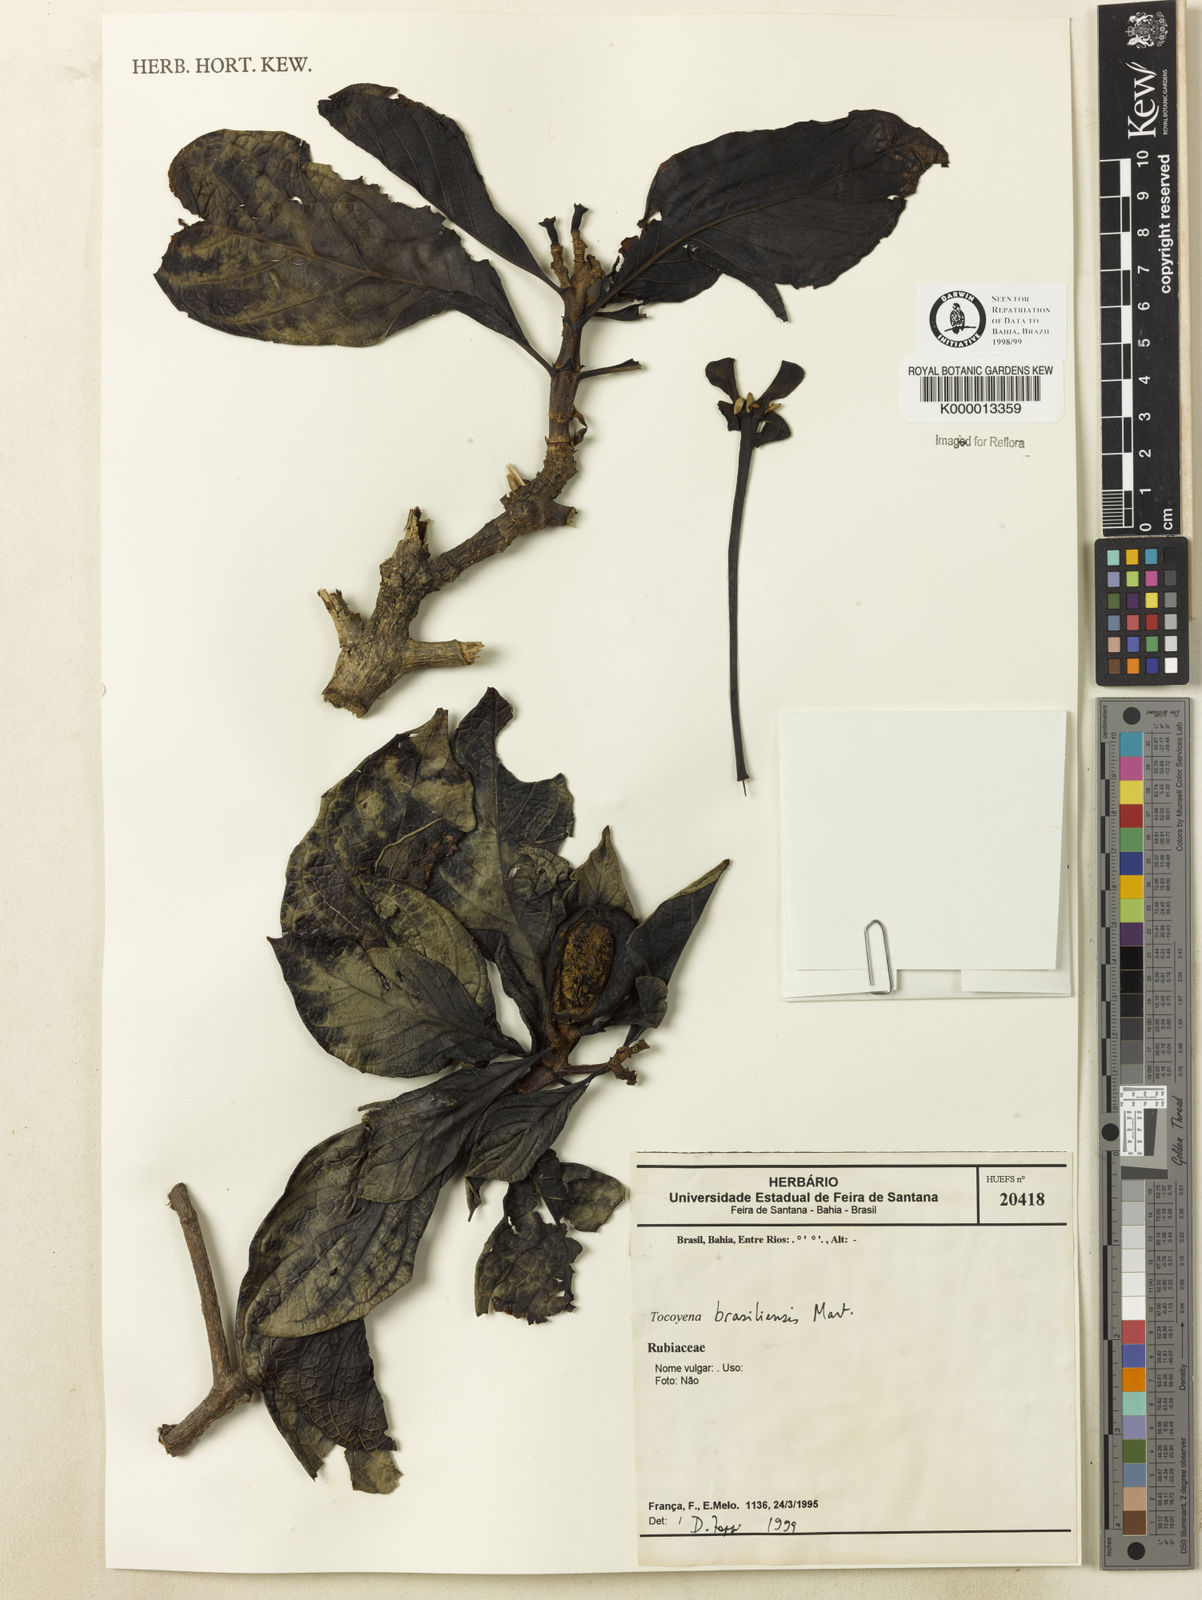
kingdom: Plantae
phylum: Tracheophyta
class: Magnoliopsida
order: Gentianales
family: Rubiaceae
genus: Tocoyena
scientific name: Tocoyena sprucei
